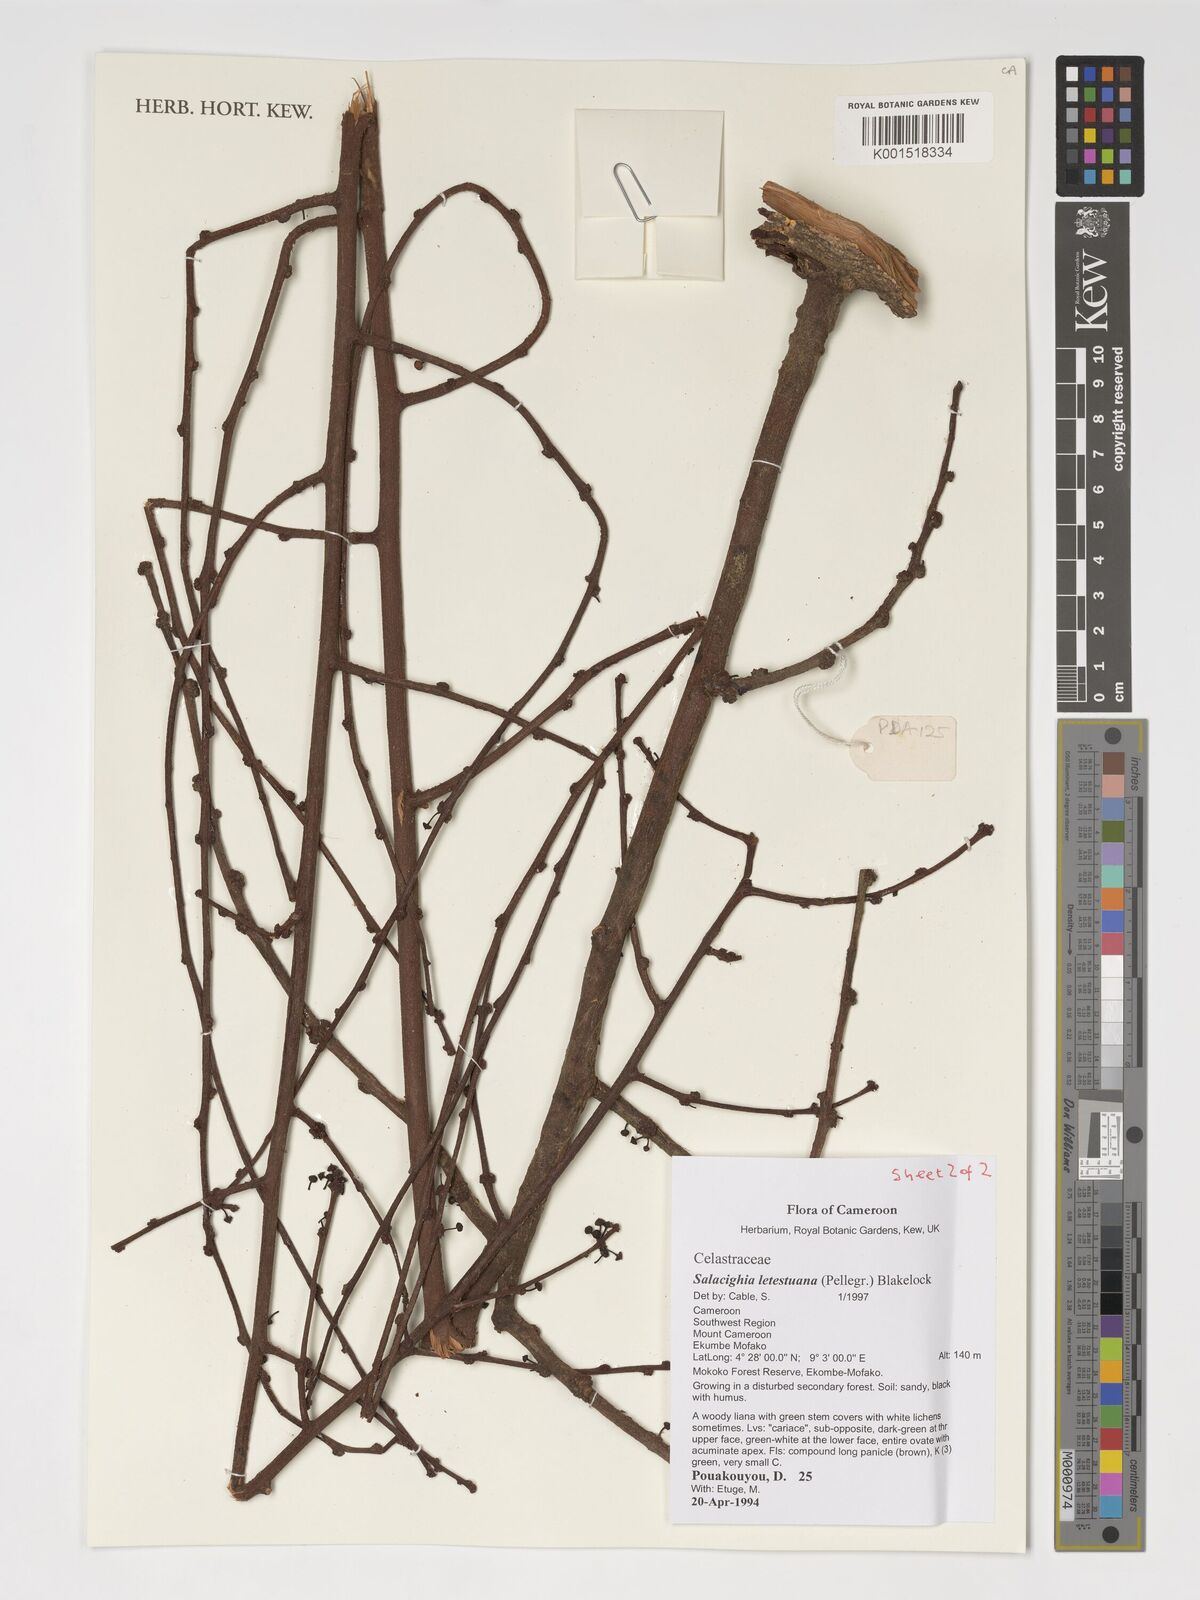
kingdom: Plantae
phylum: Tracheophyta
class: Magnoliopsida
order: Celastrales
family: Celastraceae
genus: Salacighia
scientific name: Salacighia letestuana
